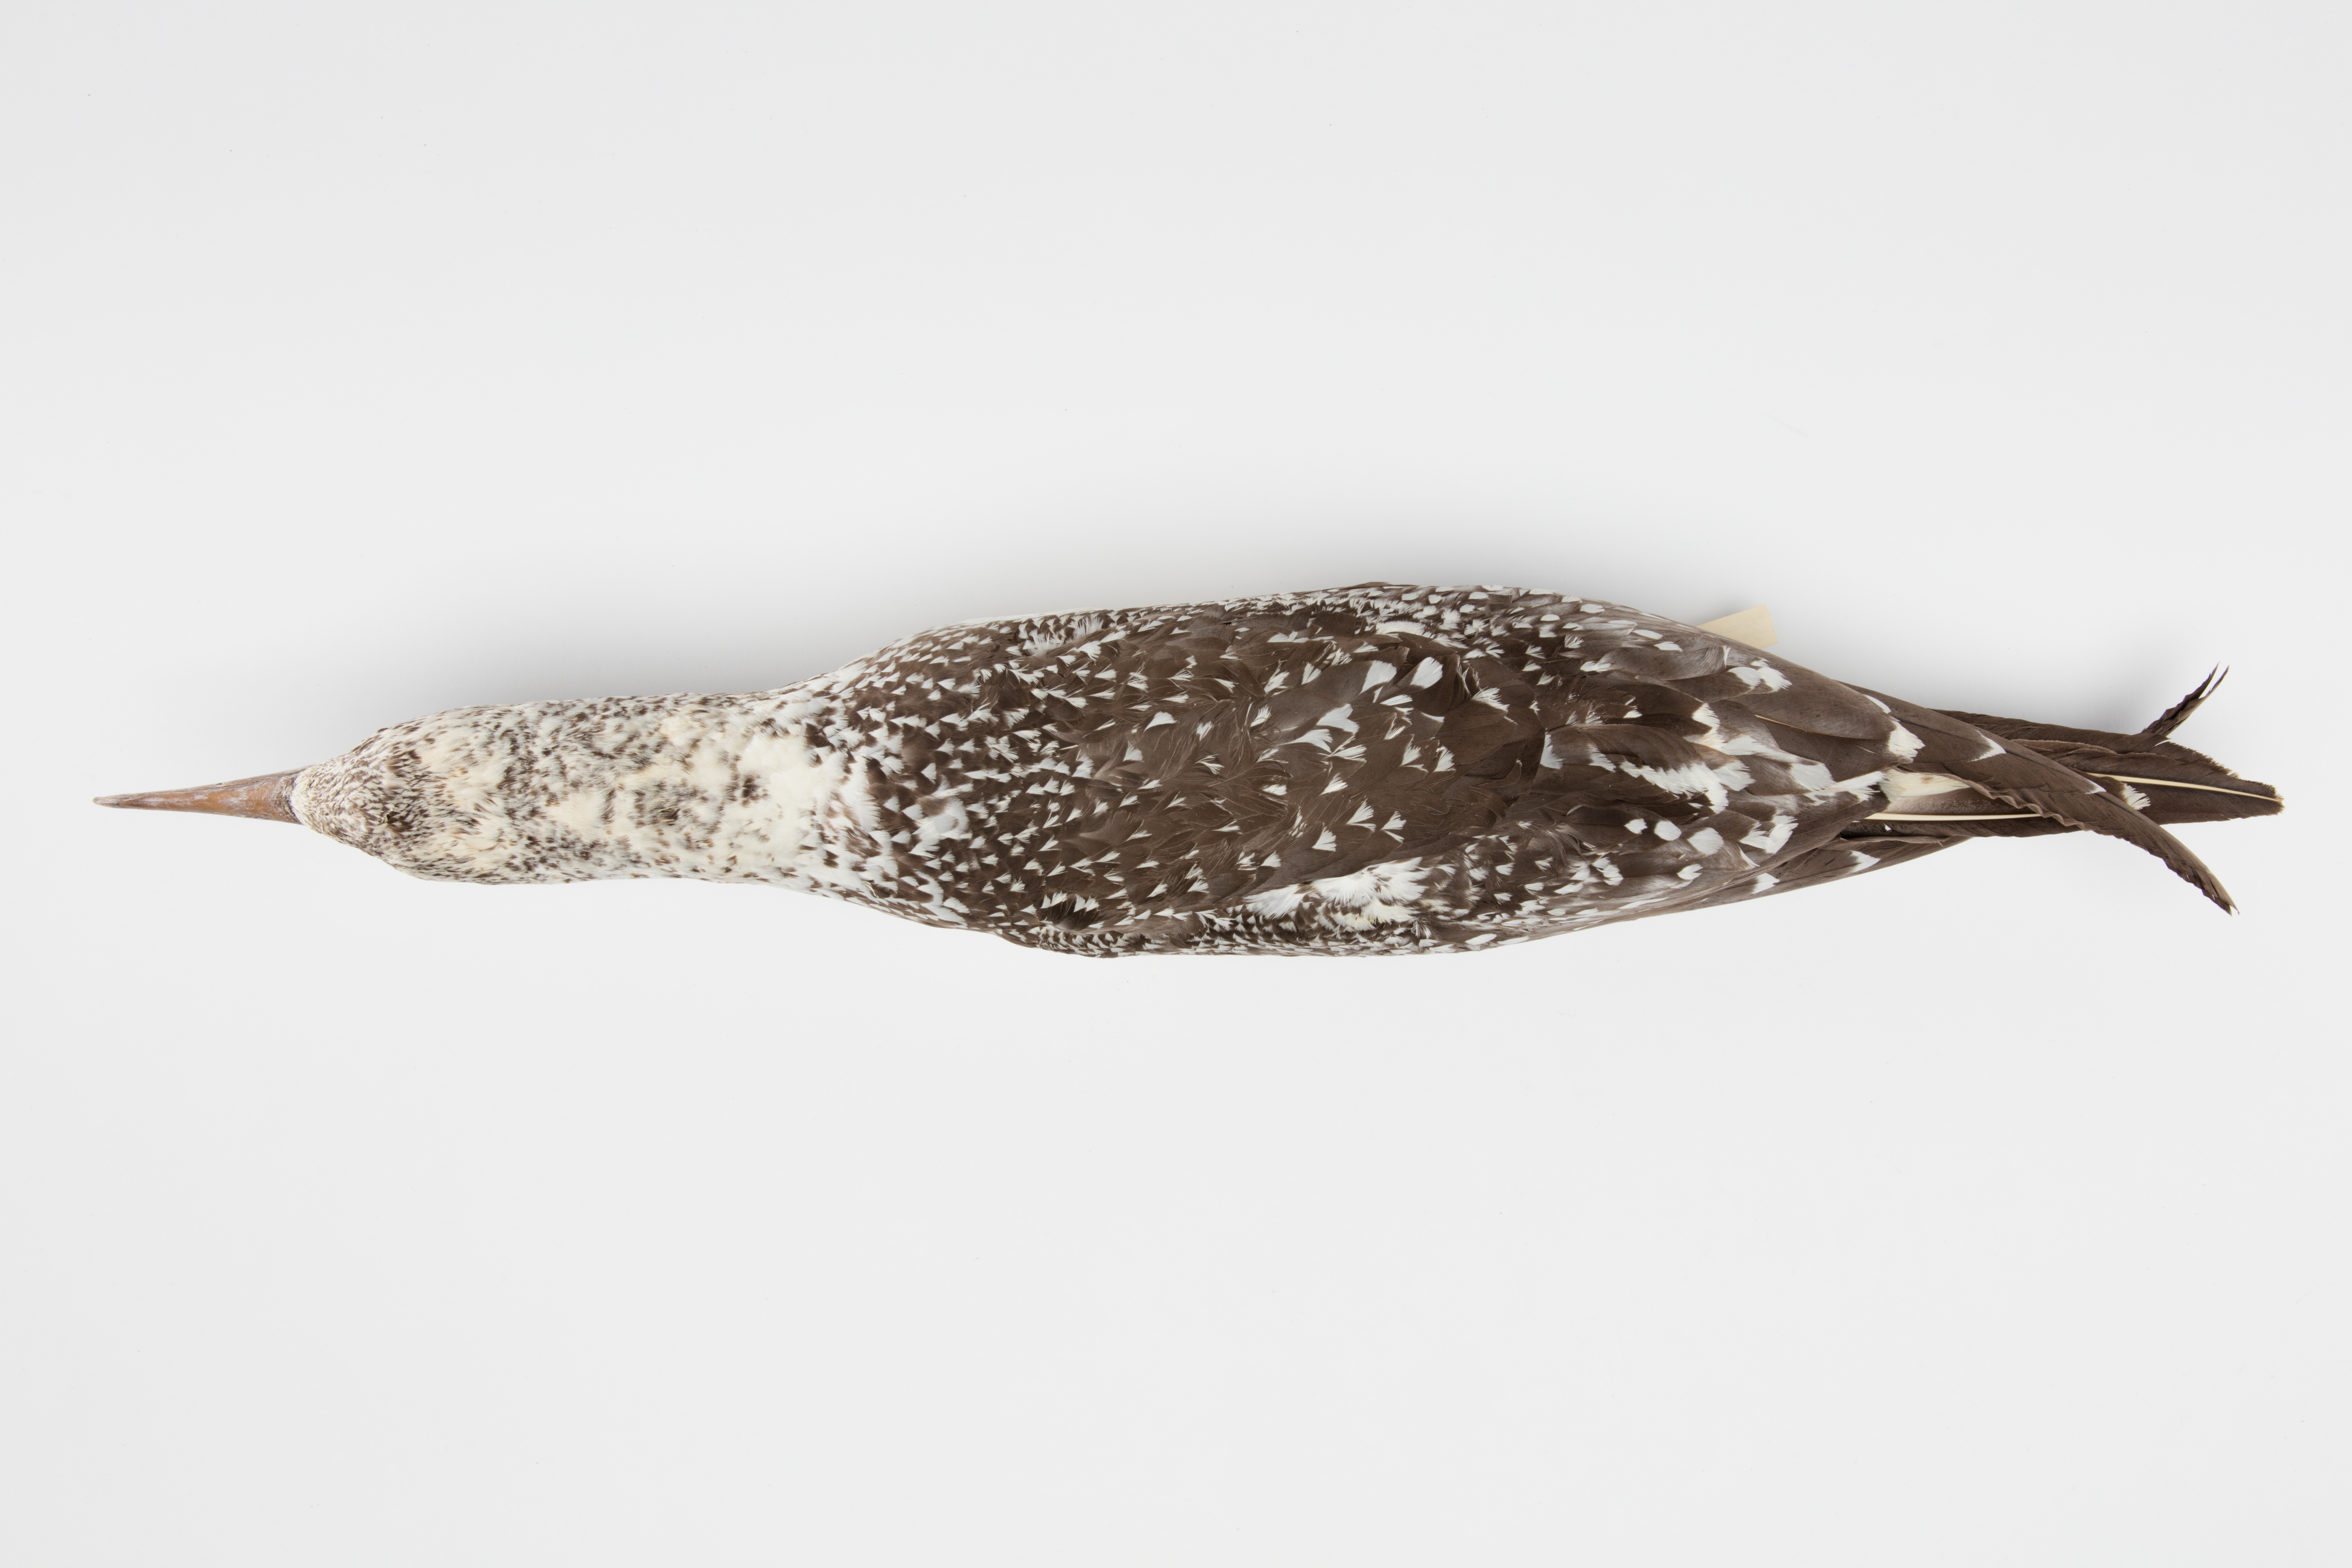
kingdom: Animalia
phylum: Chordata
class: Aves
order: Suliformes
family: Sulidae
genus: Morus
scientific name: Morus serrator
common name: Australasian gannet
